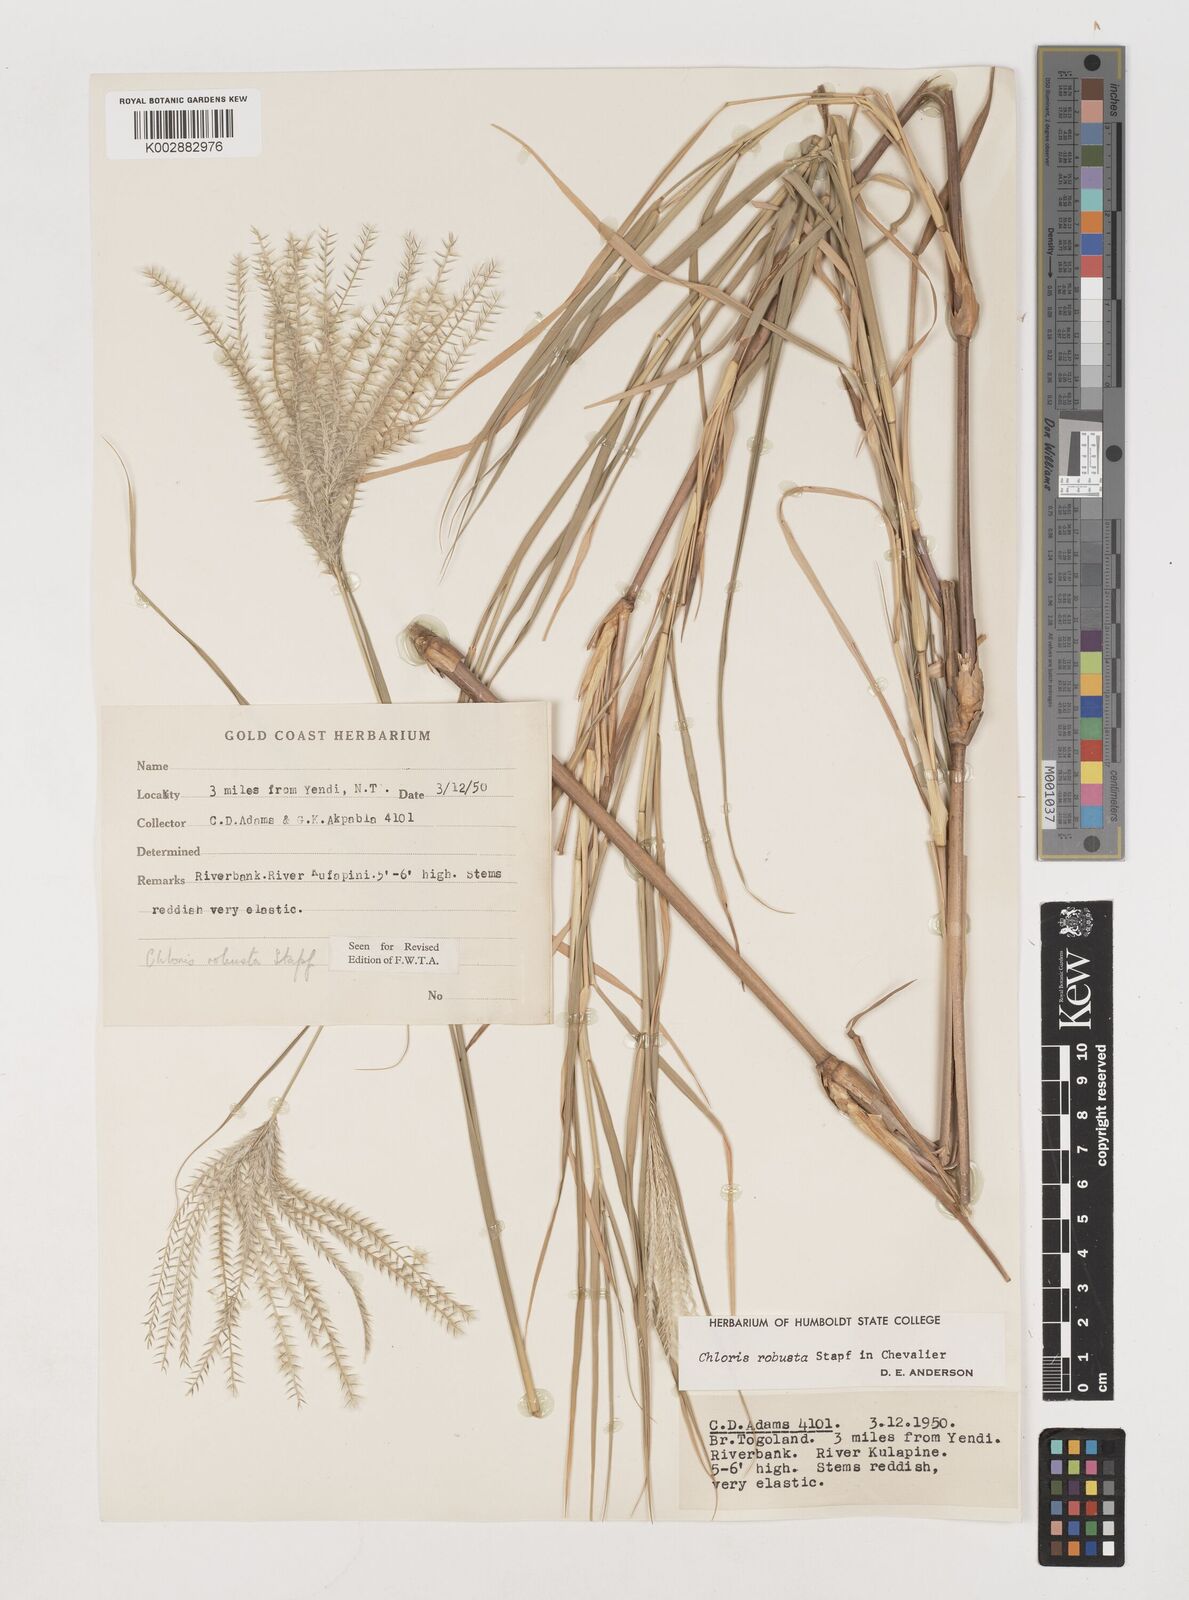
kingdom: Plantae
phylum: Tracheophyta
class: Liliopsida
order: Poales
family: Poaceae
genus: Chloris
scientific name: Chloris robusta
